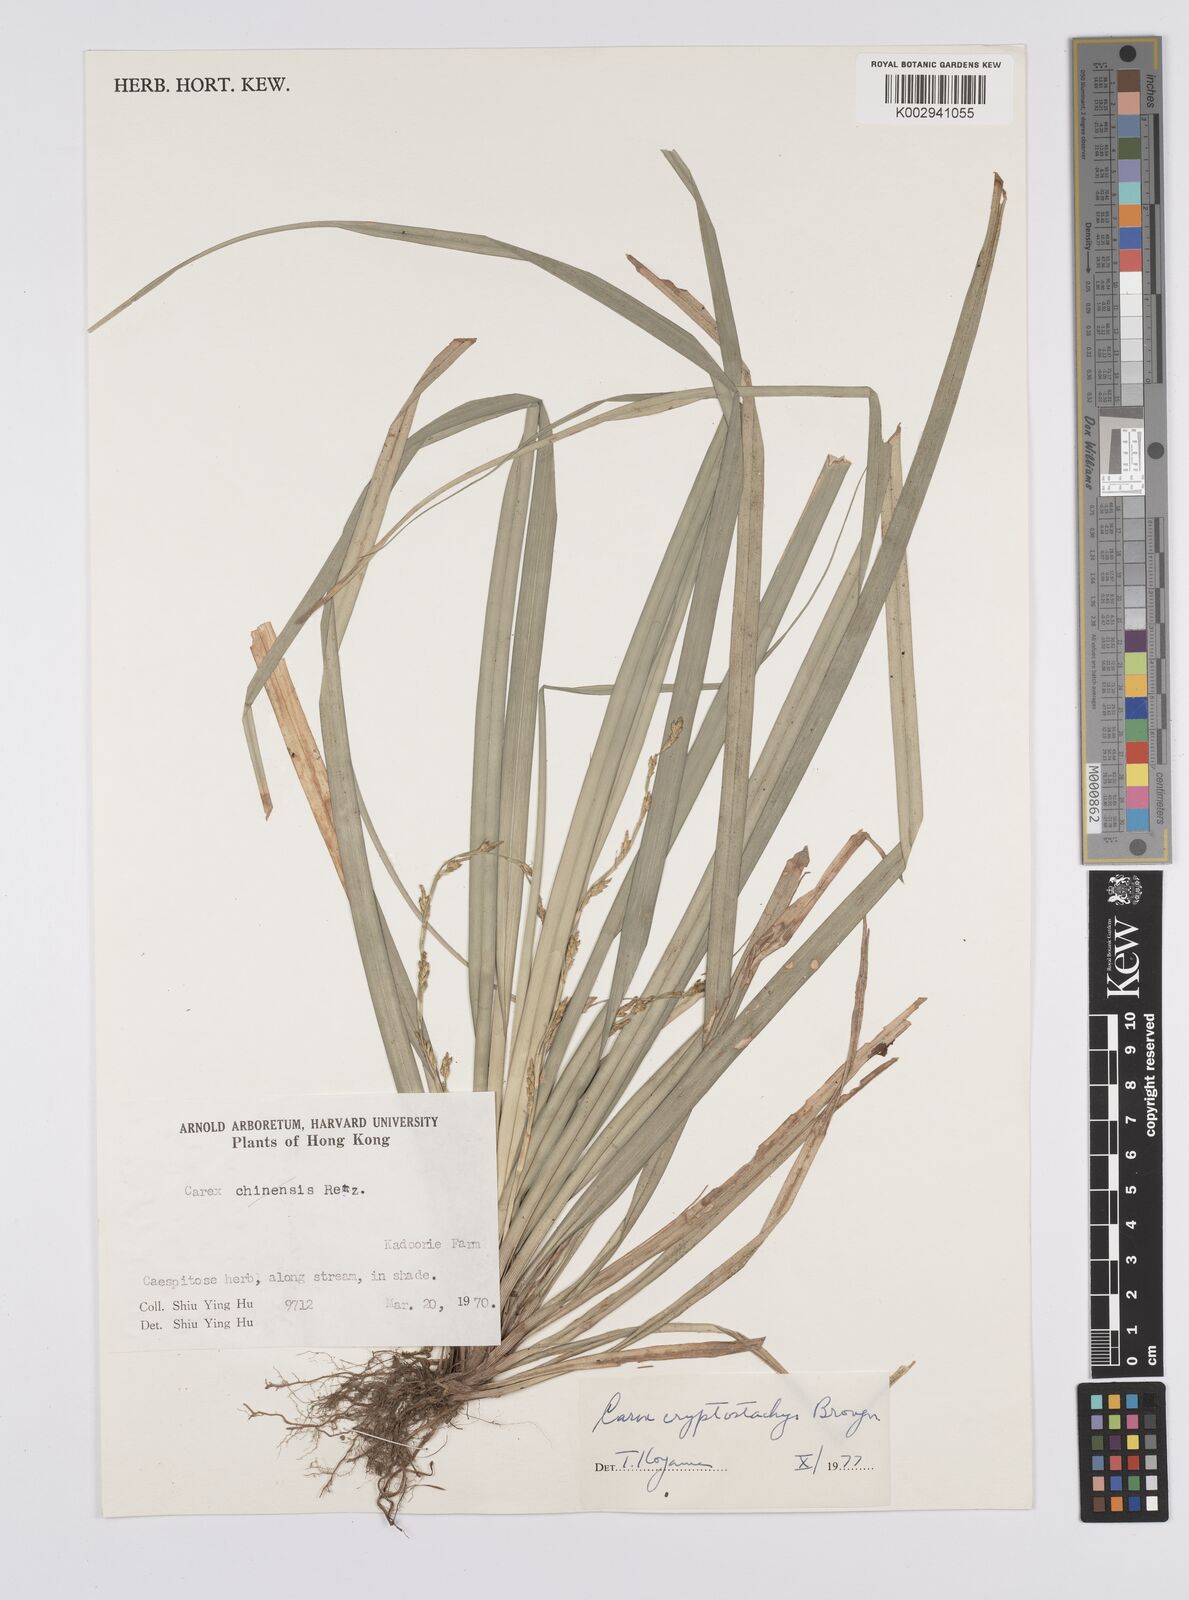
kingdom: Plantae
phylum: Tracheophyta
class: Liliopsida
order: Poales
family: Cyperaceae
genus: Carex
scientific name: Carex cryptostachys
